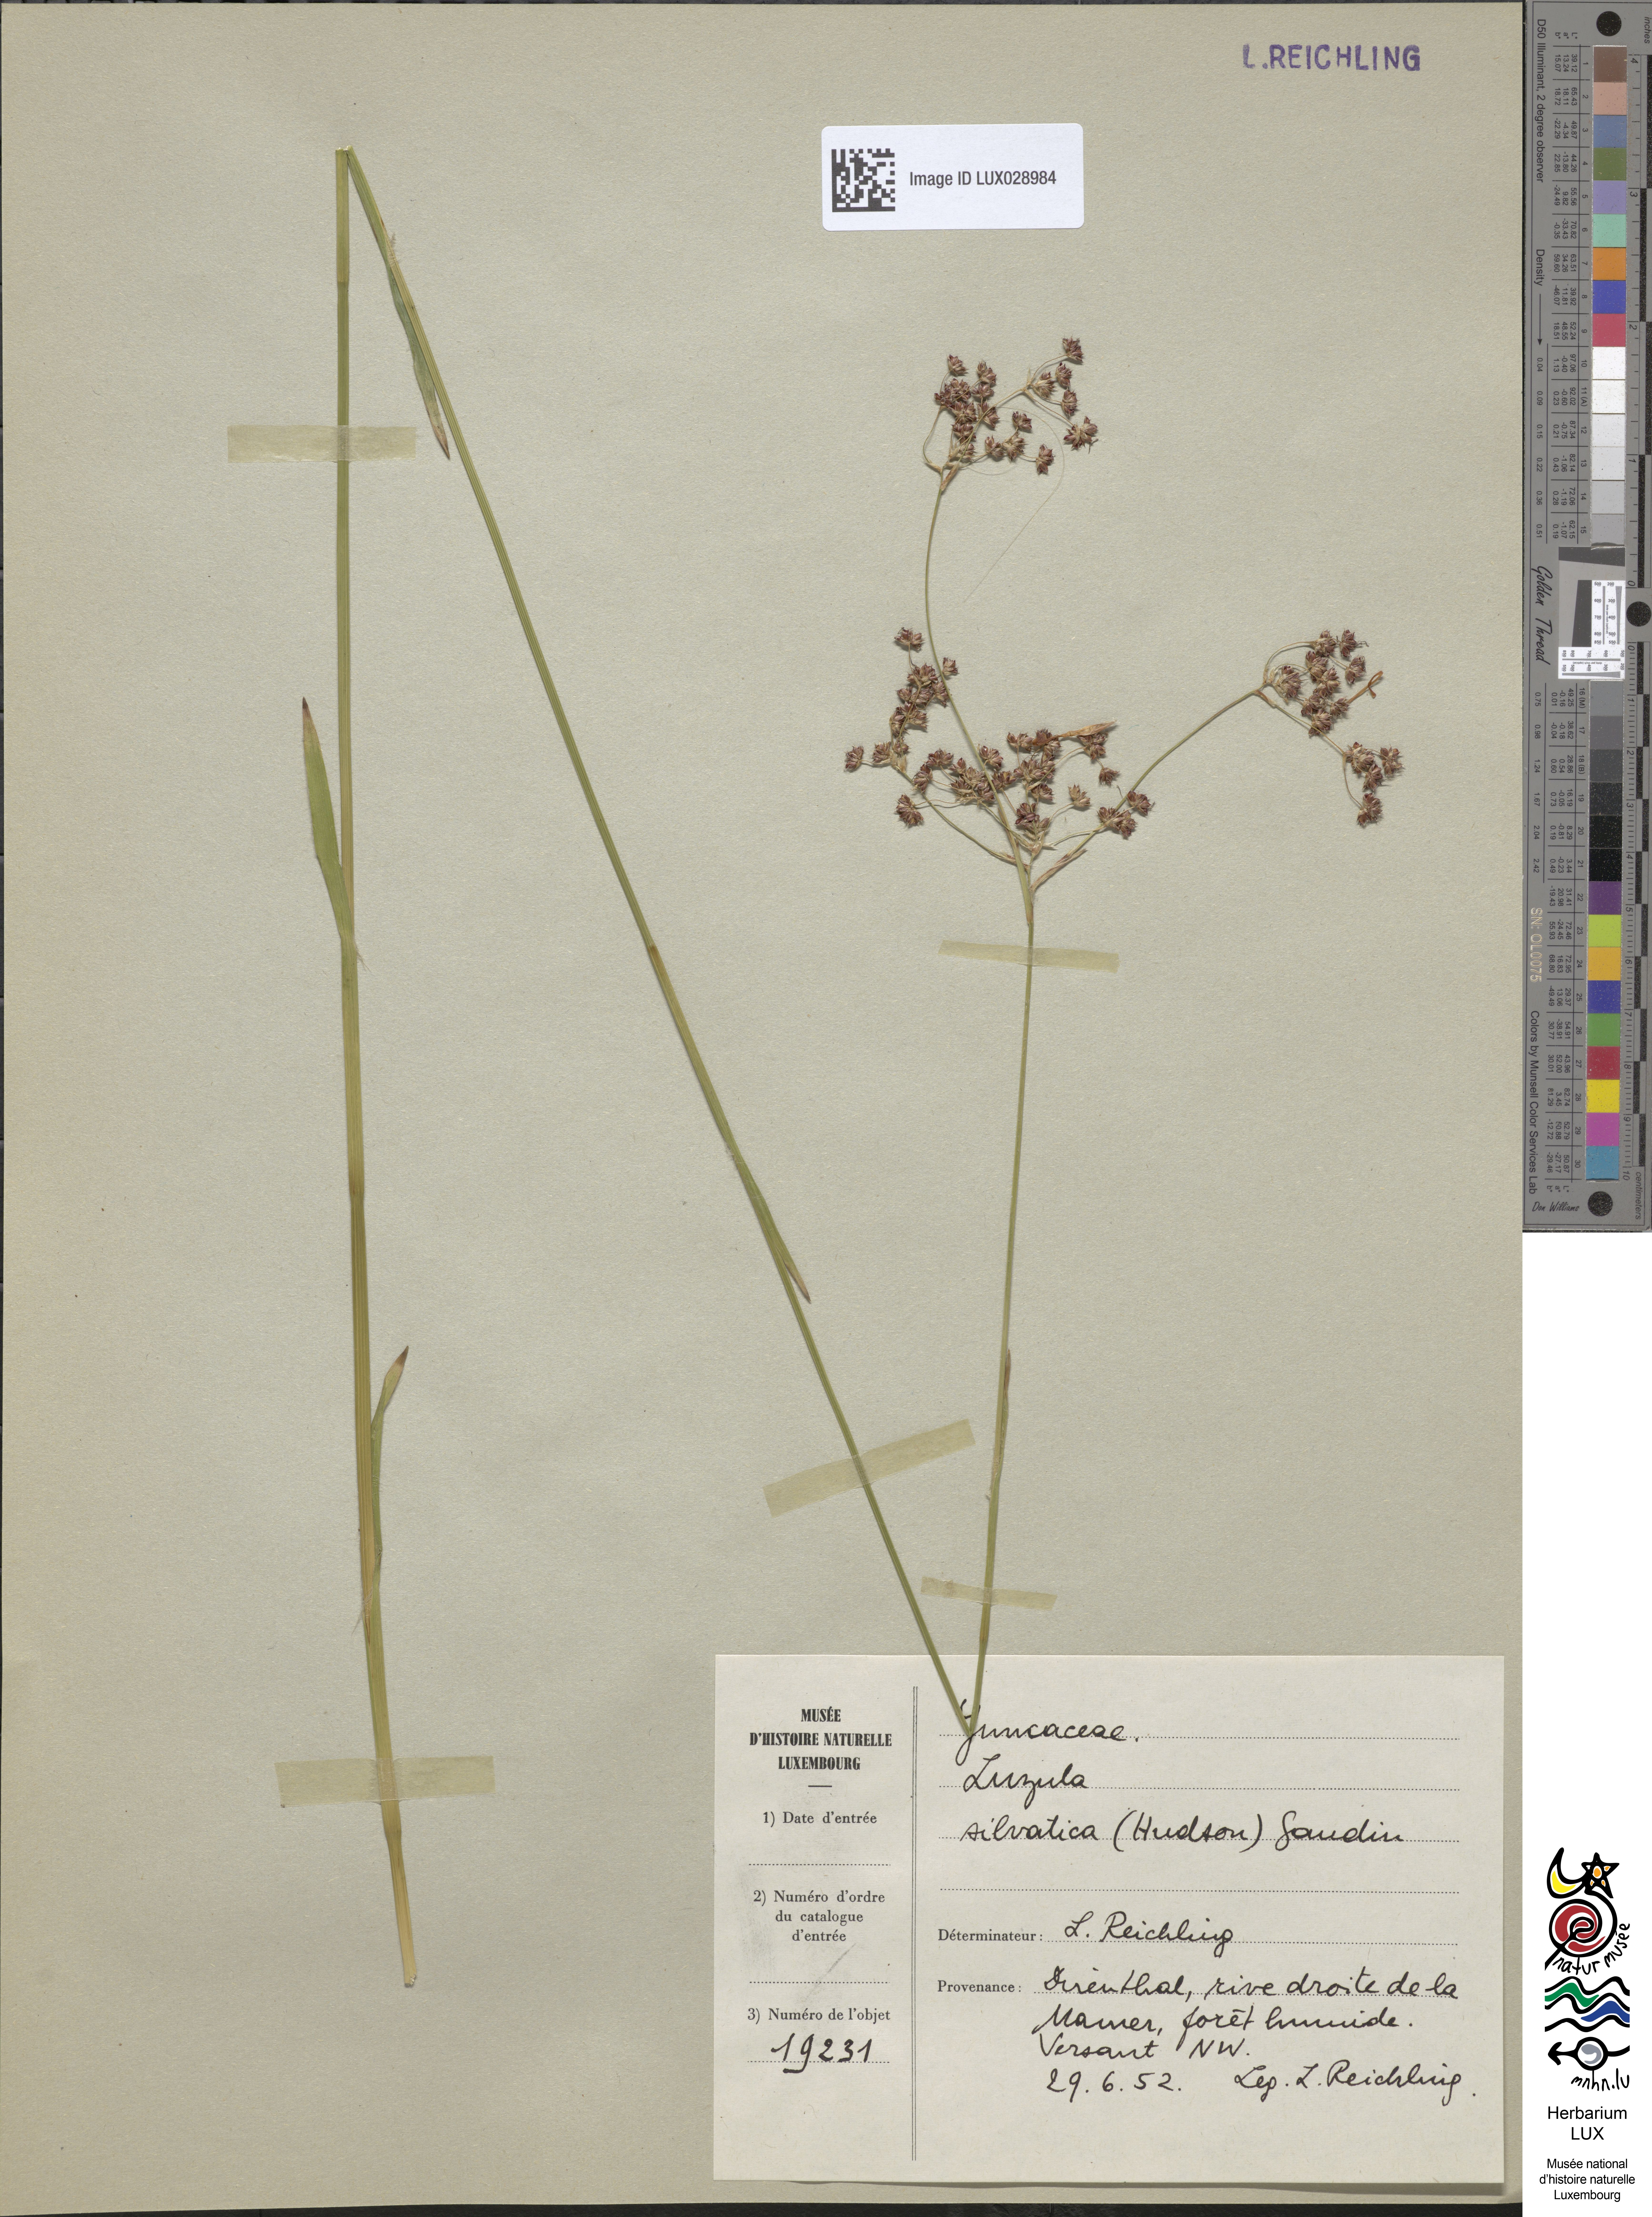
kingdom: Plantae
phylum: Tracheophyta
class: Liliopsida
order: Poales
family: Juncaceae
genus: Luzula
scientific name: Luzula sylvatica
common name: Great wood-rush
